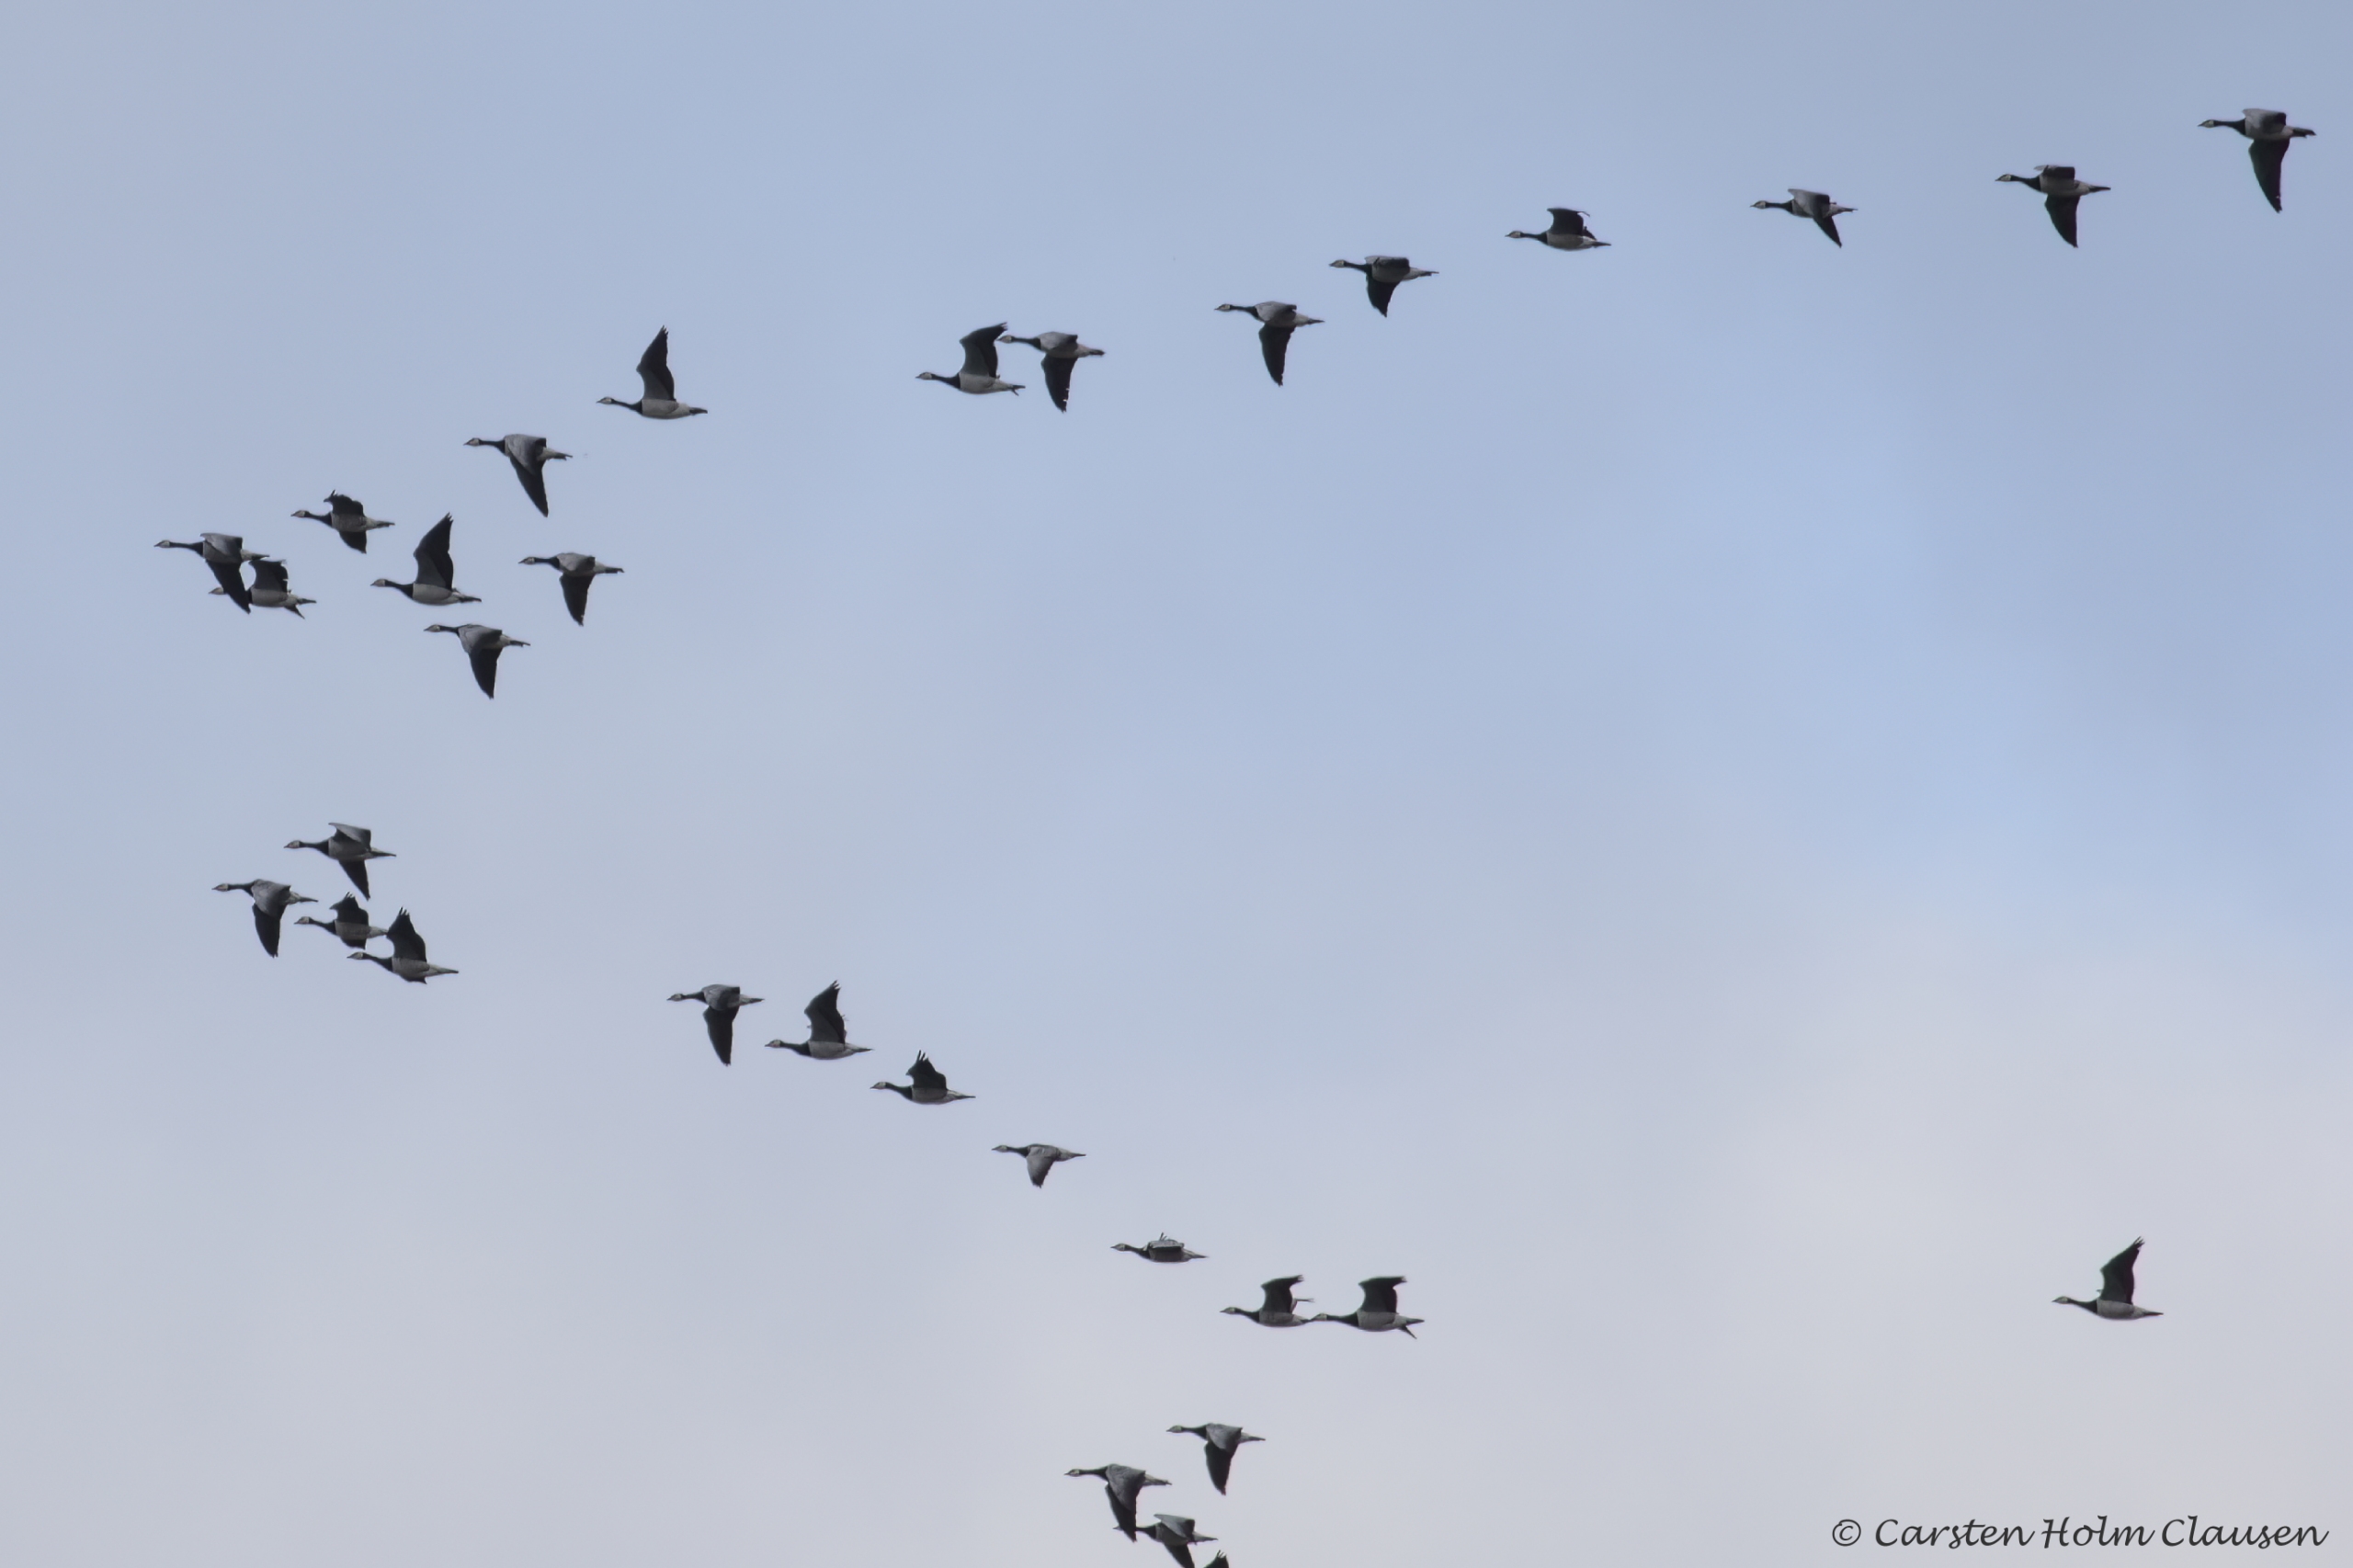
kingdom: Animalia
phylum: Chordata
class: Aves
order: Anseriformes
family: Anatidae
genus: Branta
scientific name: Branta leucopsis
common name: Bramgås
